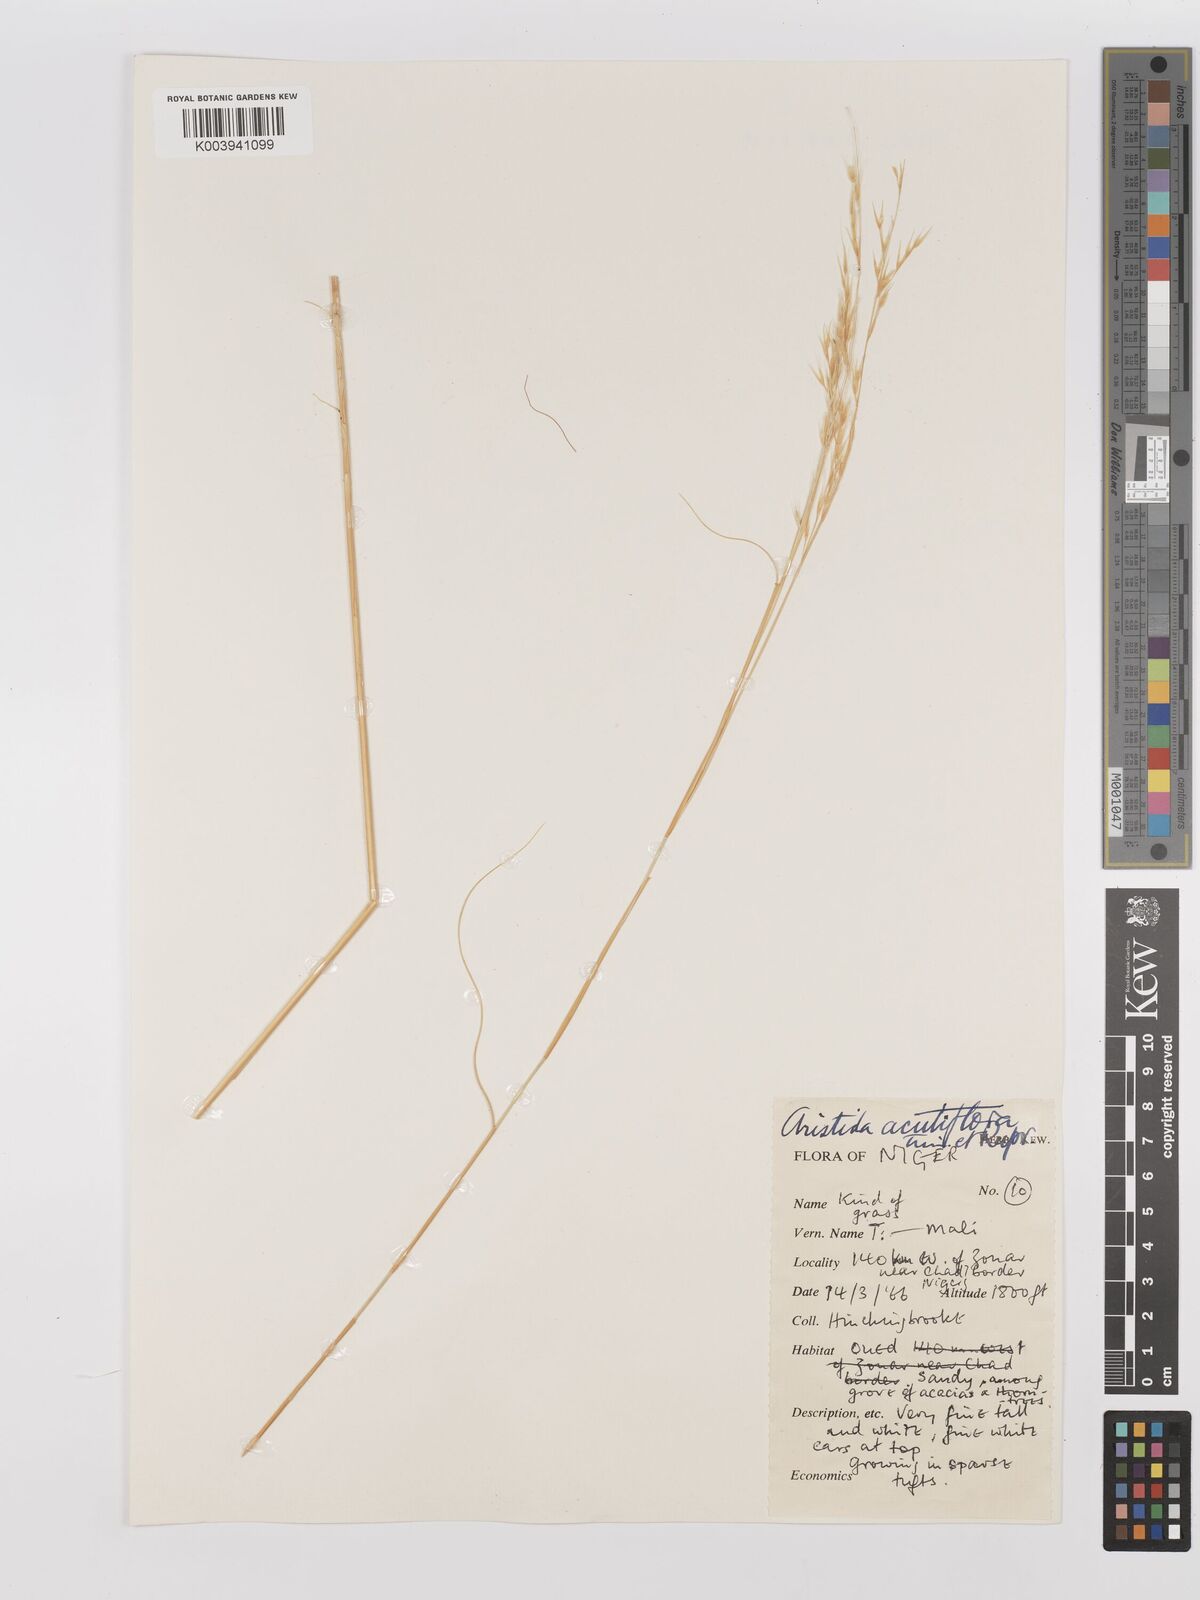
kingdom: Plantae
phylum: Tracheophyta
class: Liliopsida
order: Poales
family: Poaceae
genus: Stipagrostis
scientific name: Stipagrostis acutiflora
